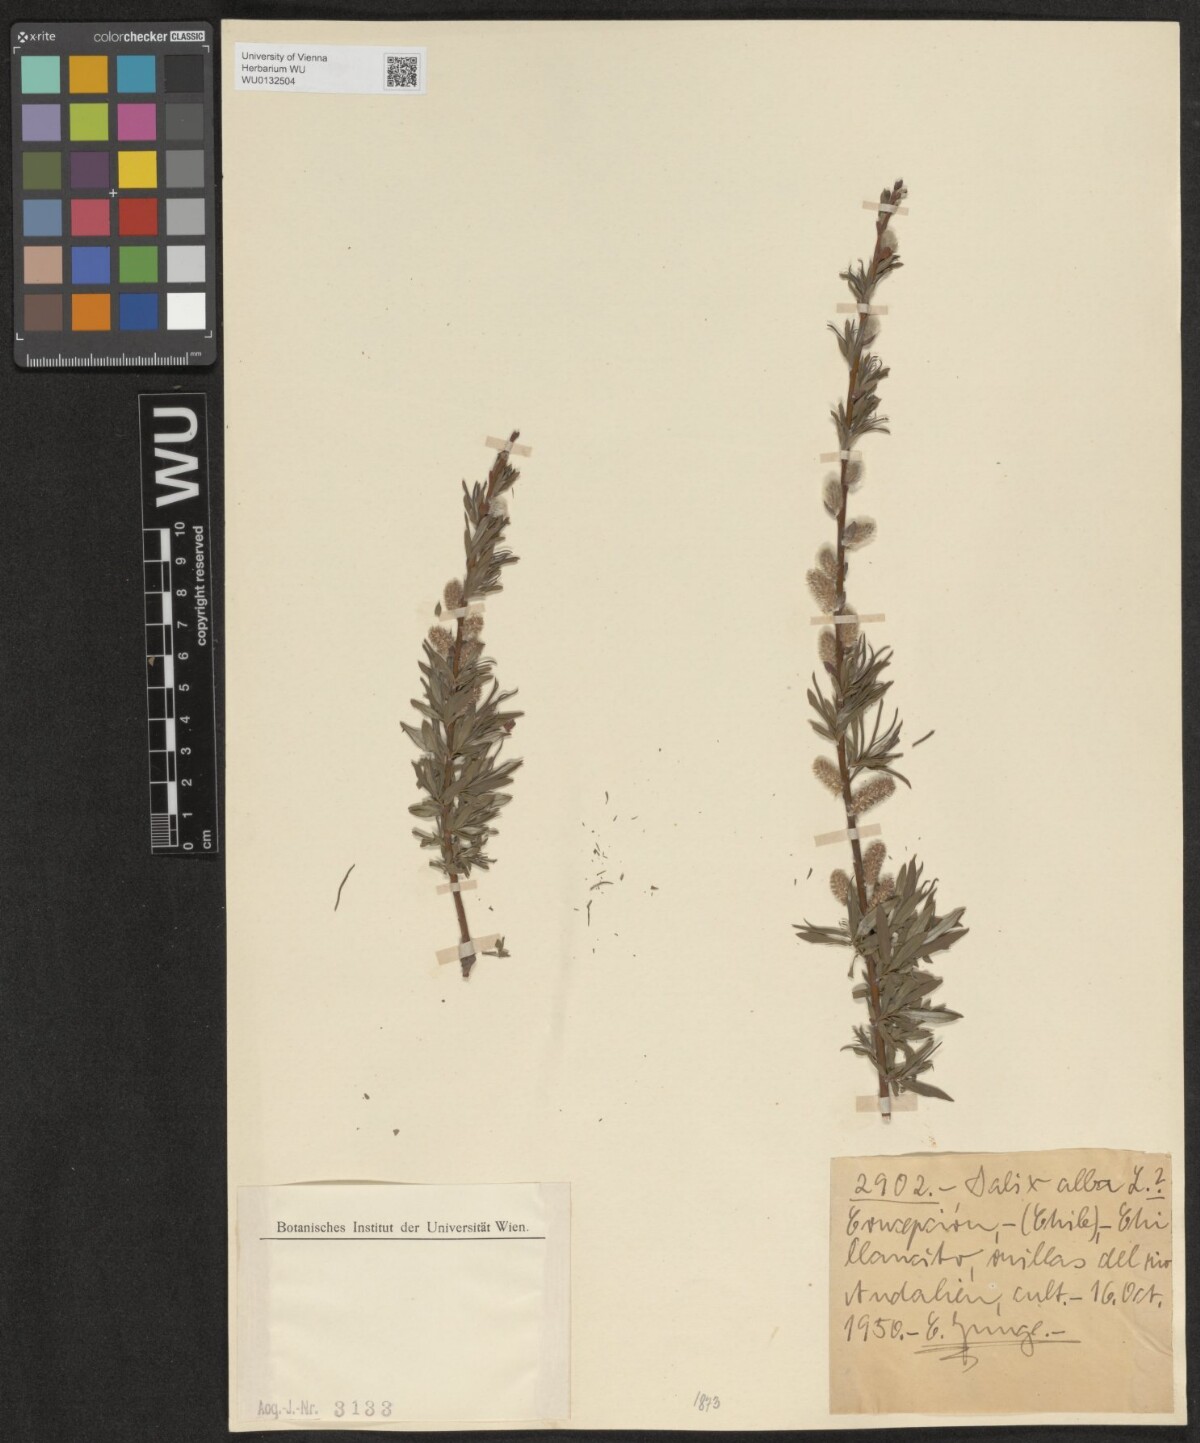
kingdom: Plantae
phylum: Tracheophyta
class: Magnoliopsida
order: Malpighiales
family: Salicaceae
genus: Salix
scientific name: Salix alba
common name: White willow
